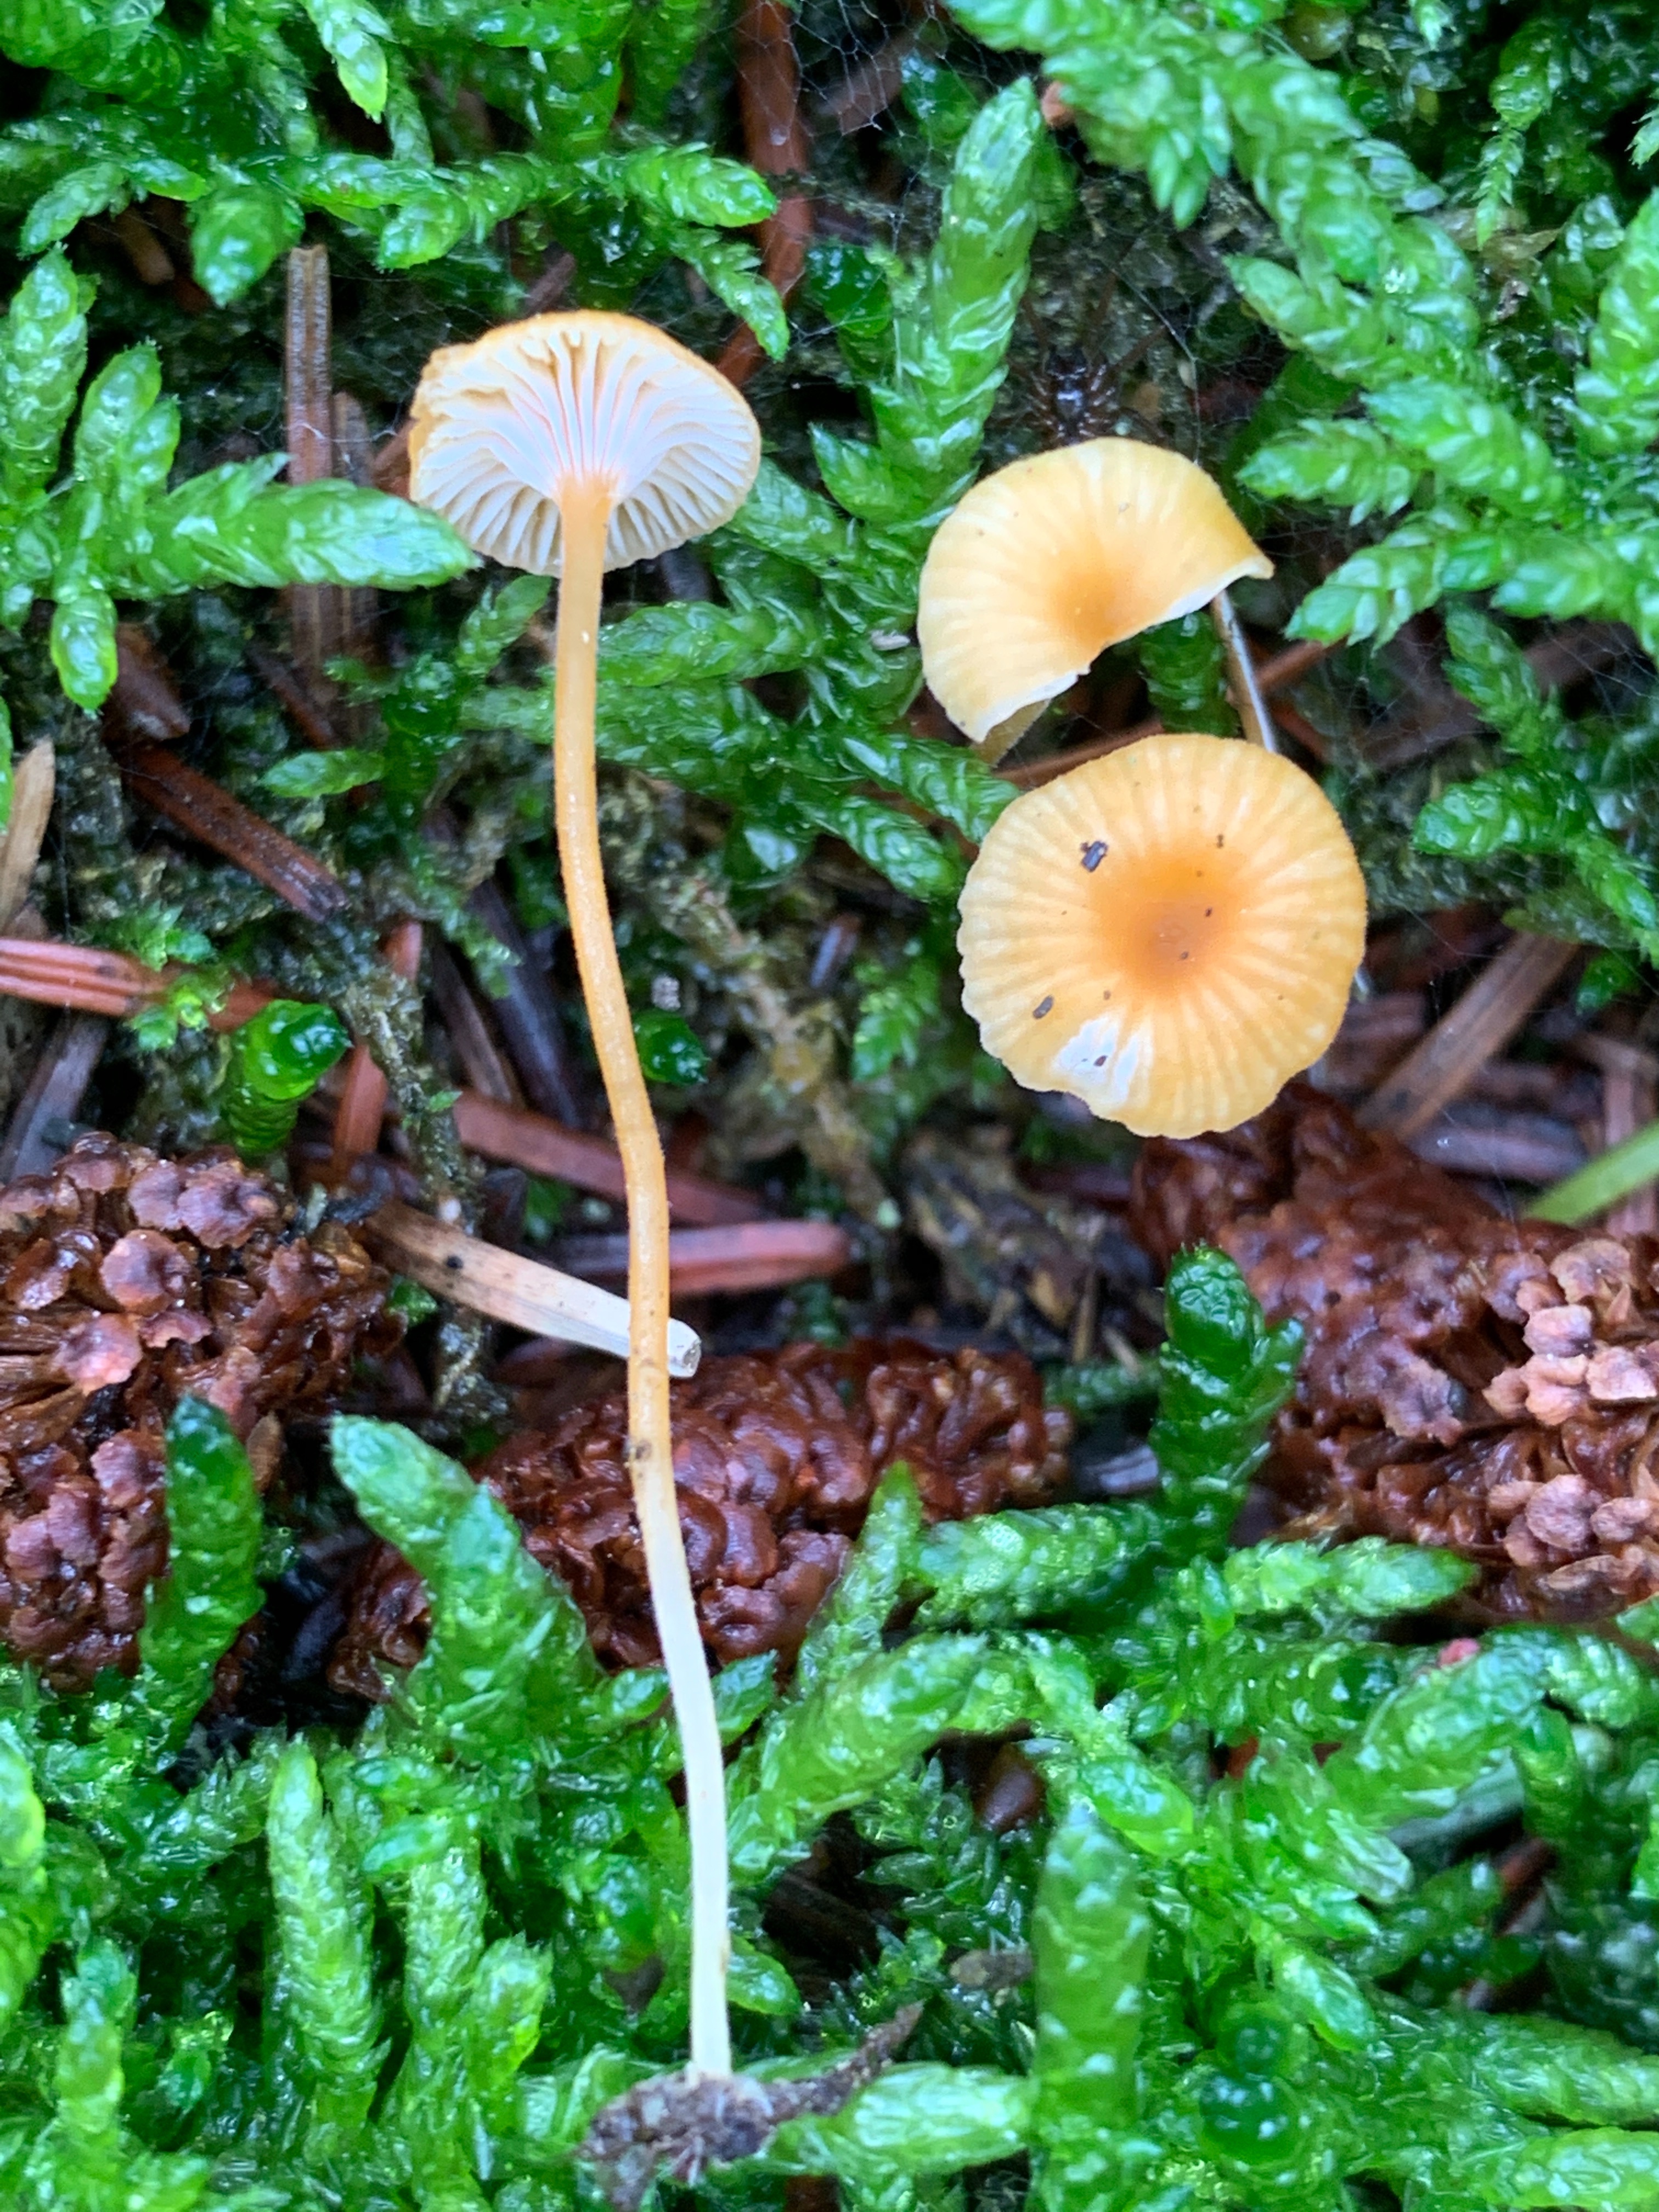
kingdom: Fungi
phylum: Basidiomycota
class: Agaricomycetes
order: Hymenochaetales
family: Rickenellaceae
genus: Rickenella
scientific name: Rickenella fibula
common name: orange mosnavlehat
